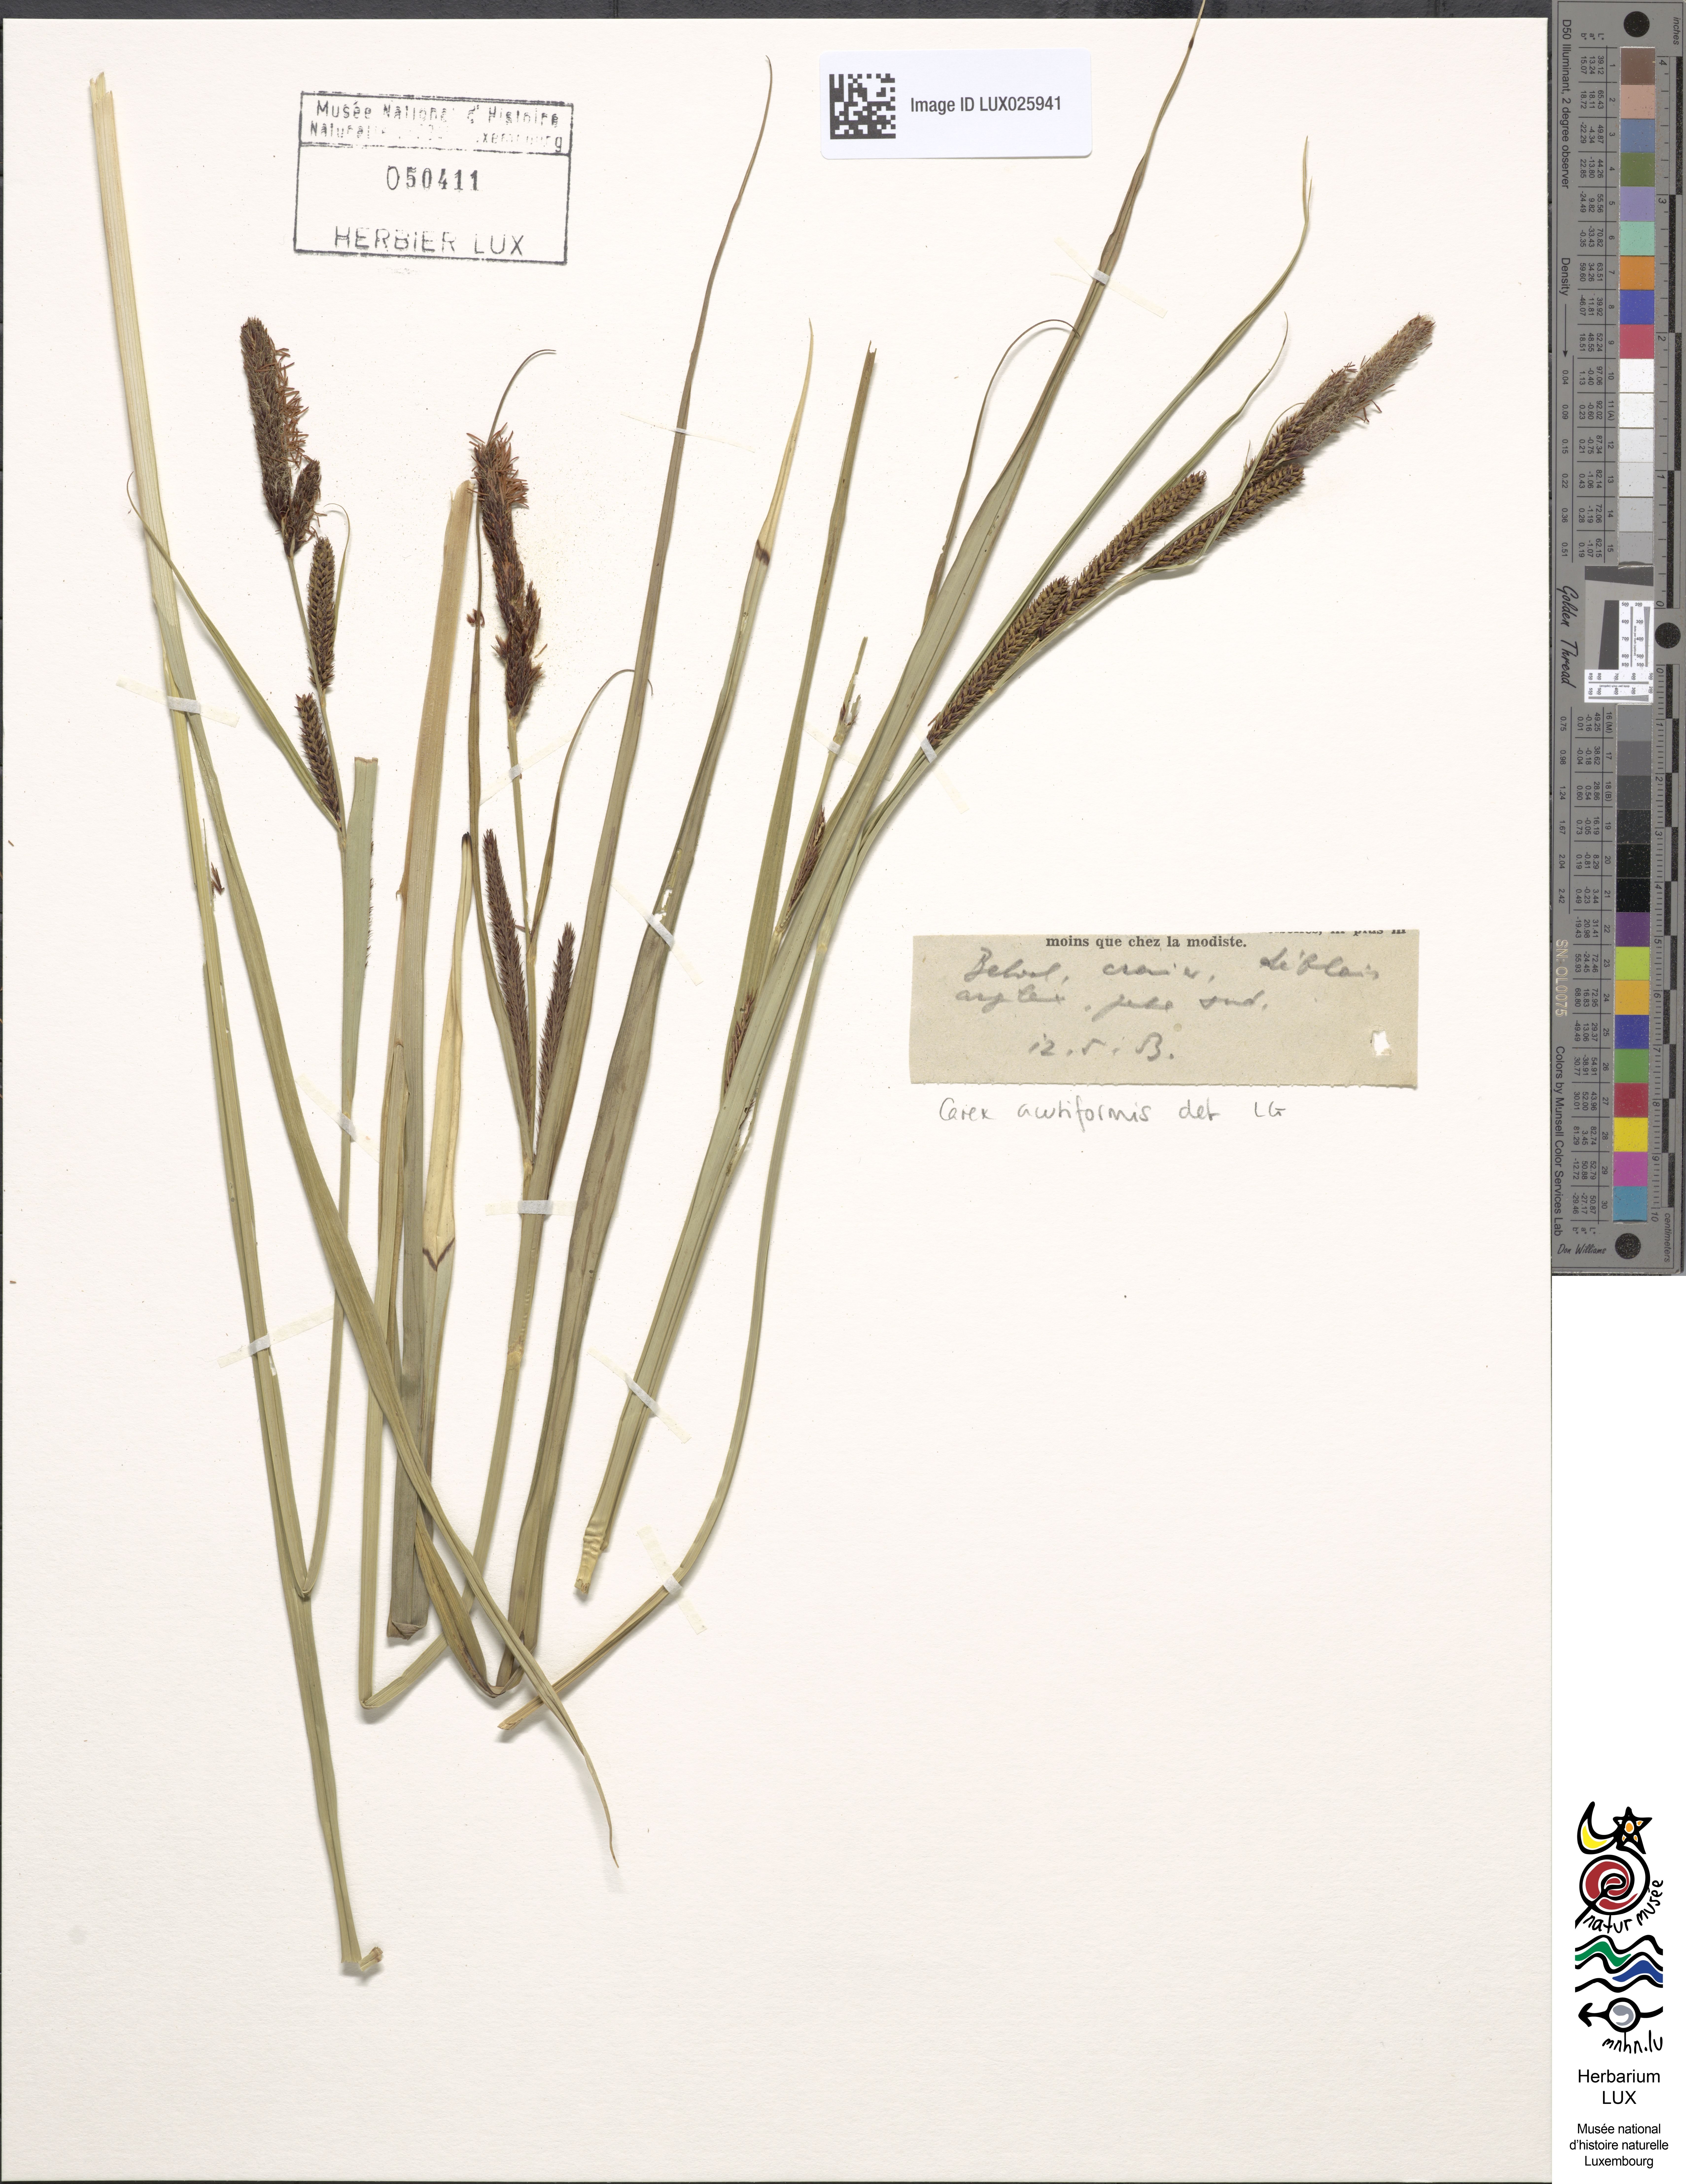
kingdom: Plantae
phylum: Tracheophyta
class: Liliopsida
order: Poales
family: Cyperaceae
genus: Carex
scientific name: Carex acutiformis
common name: Lesser pond-sedge
